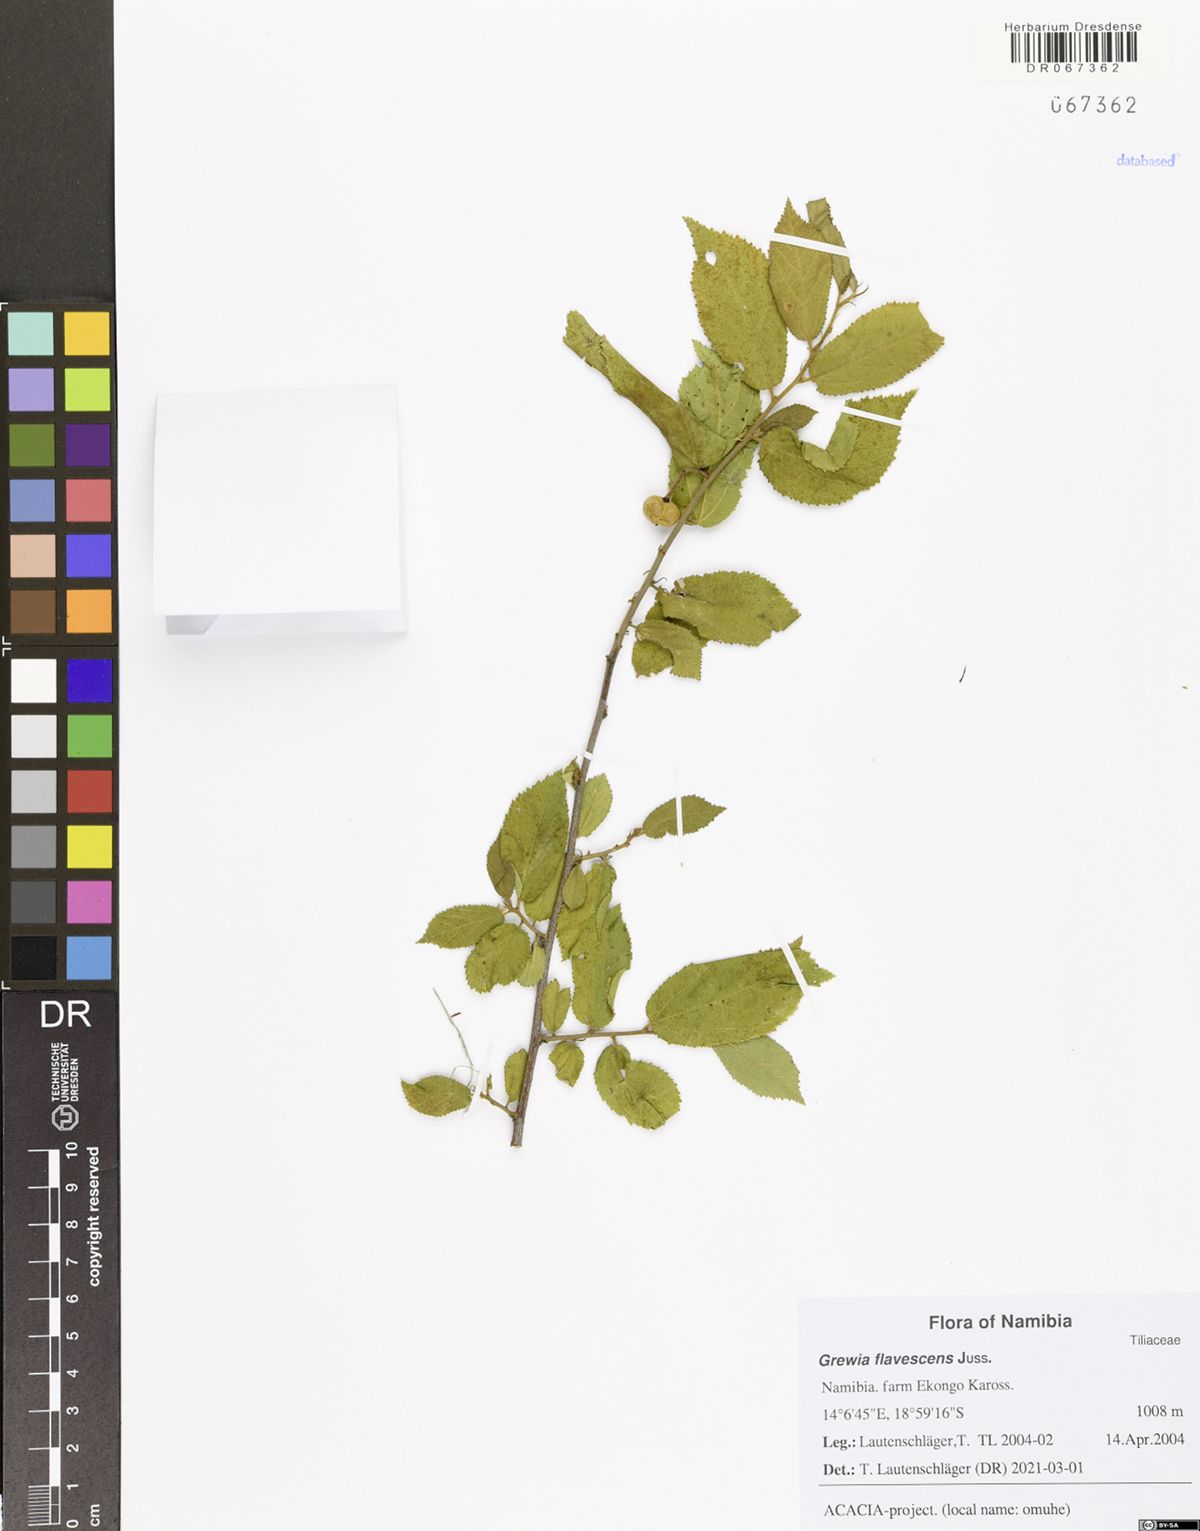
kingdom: Plantae
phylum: Tracheophyta
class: Magnoliopsida
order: Malvales
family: Malvaceae
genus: Grewia
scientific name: Grewia flavescens
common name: Sandpaper raisin
